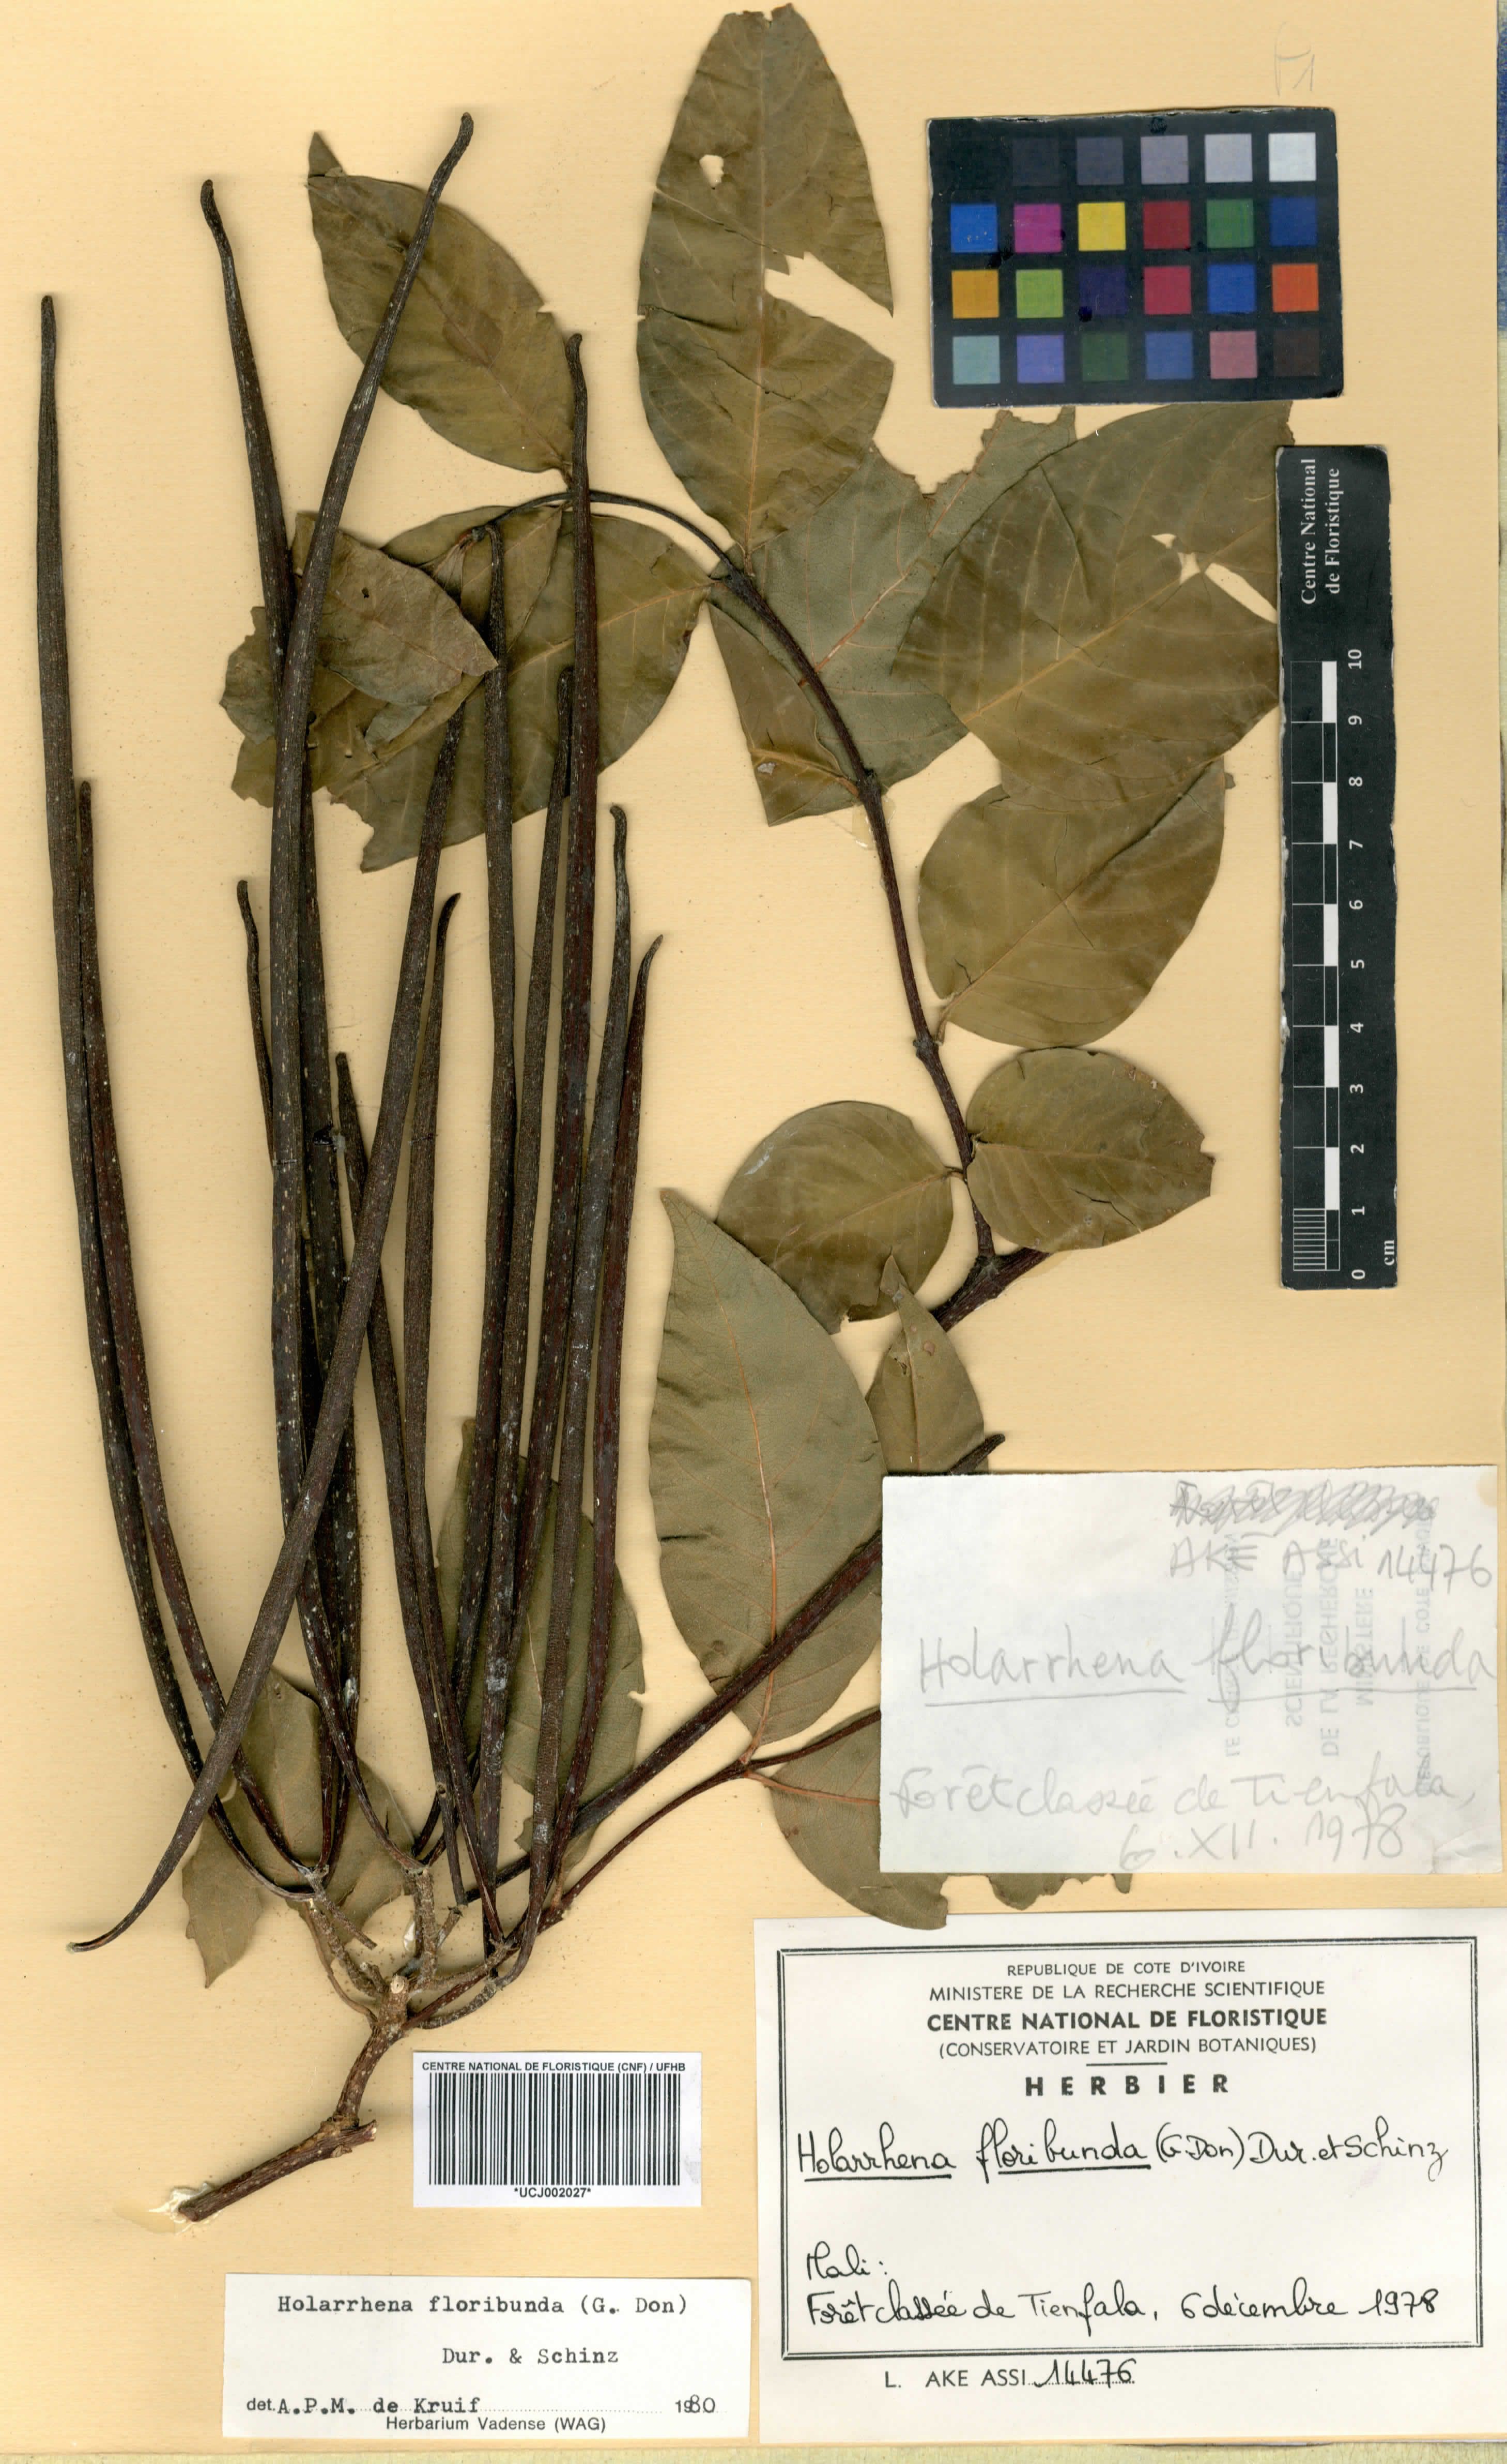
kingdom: Plantae
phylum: Tracheophyta
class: Magnoliopsida
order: Gentianales
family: Apocynaceae
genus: Holarrhena
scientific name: Holarrhena floribunda
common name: Kurchibark
